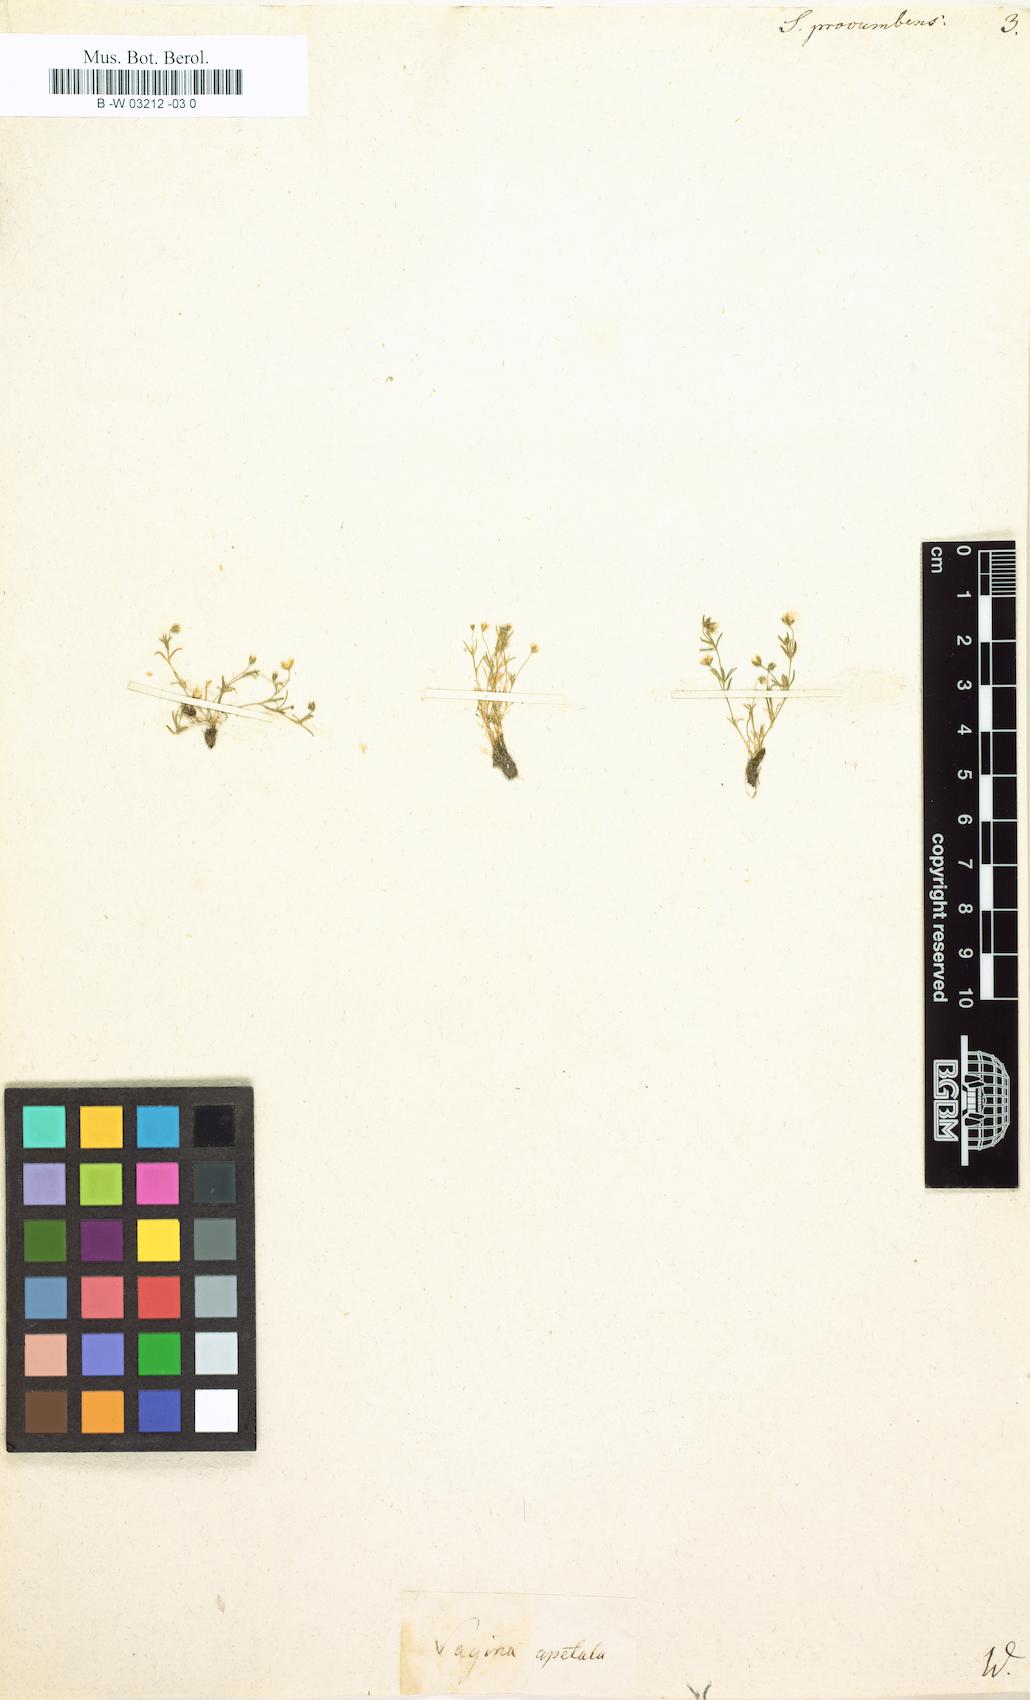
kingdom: Plantae
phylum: Tracheophyta
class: Magnoliopsida
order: Caryophyllales
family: Caryophyllaceae
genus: Sagina
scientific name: Sagina procumbens
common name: Procumbent pearlwort
